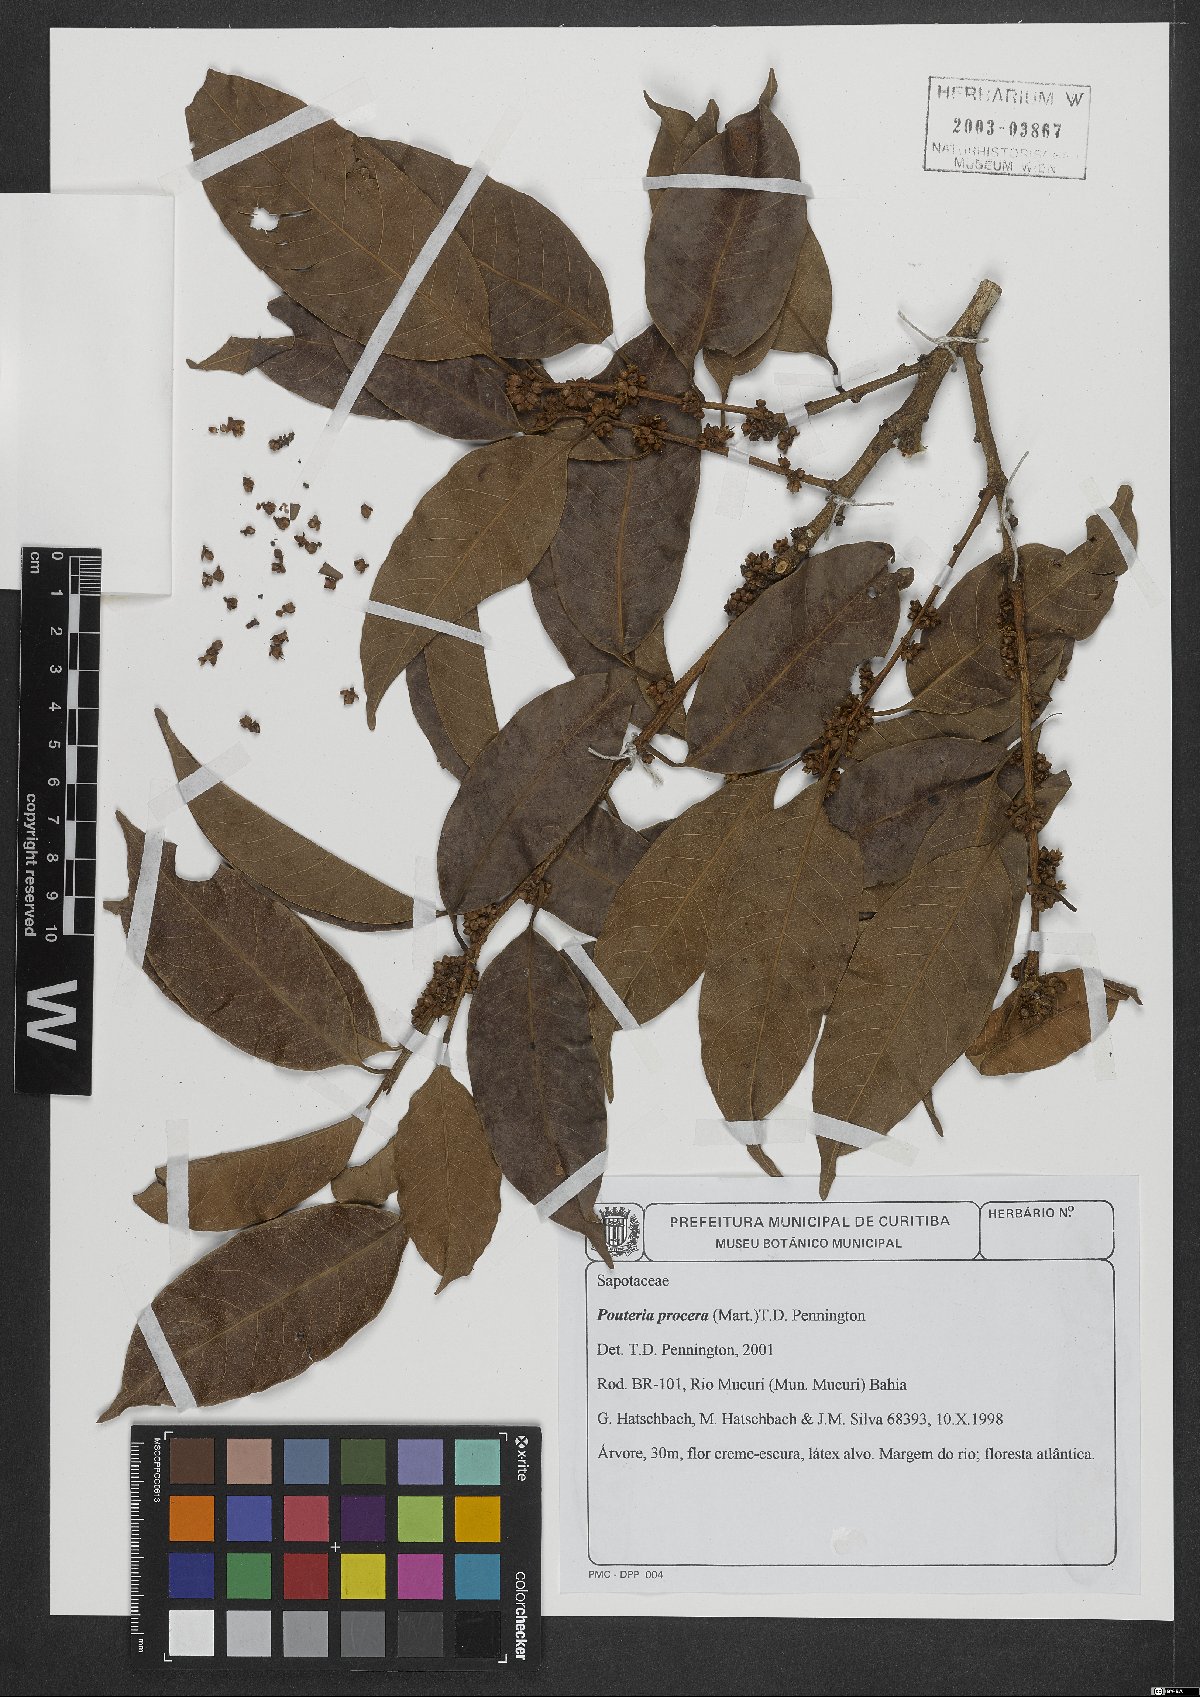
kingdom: Plantae
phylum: Tracheophyta
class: Magnoliopsida
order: Ericales
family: Sapotaceae
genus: Pouteria
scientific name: Pouteria procera
